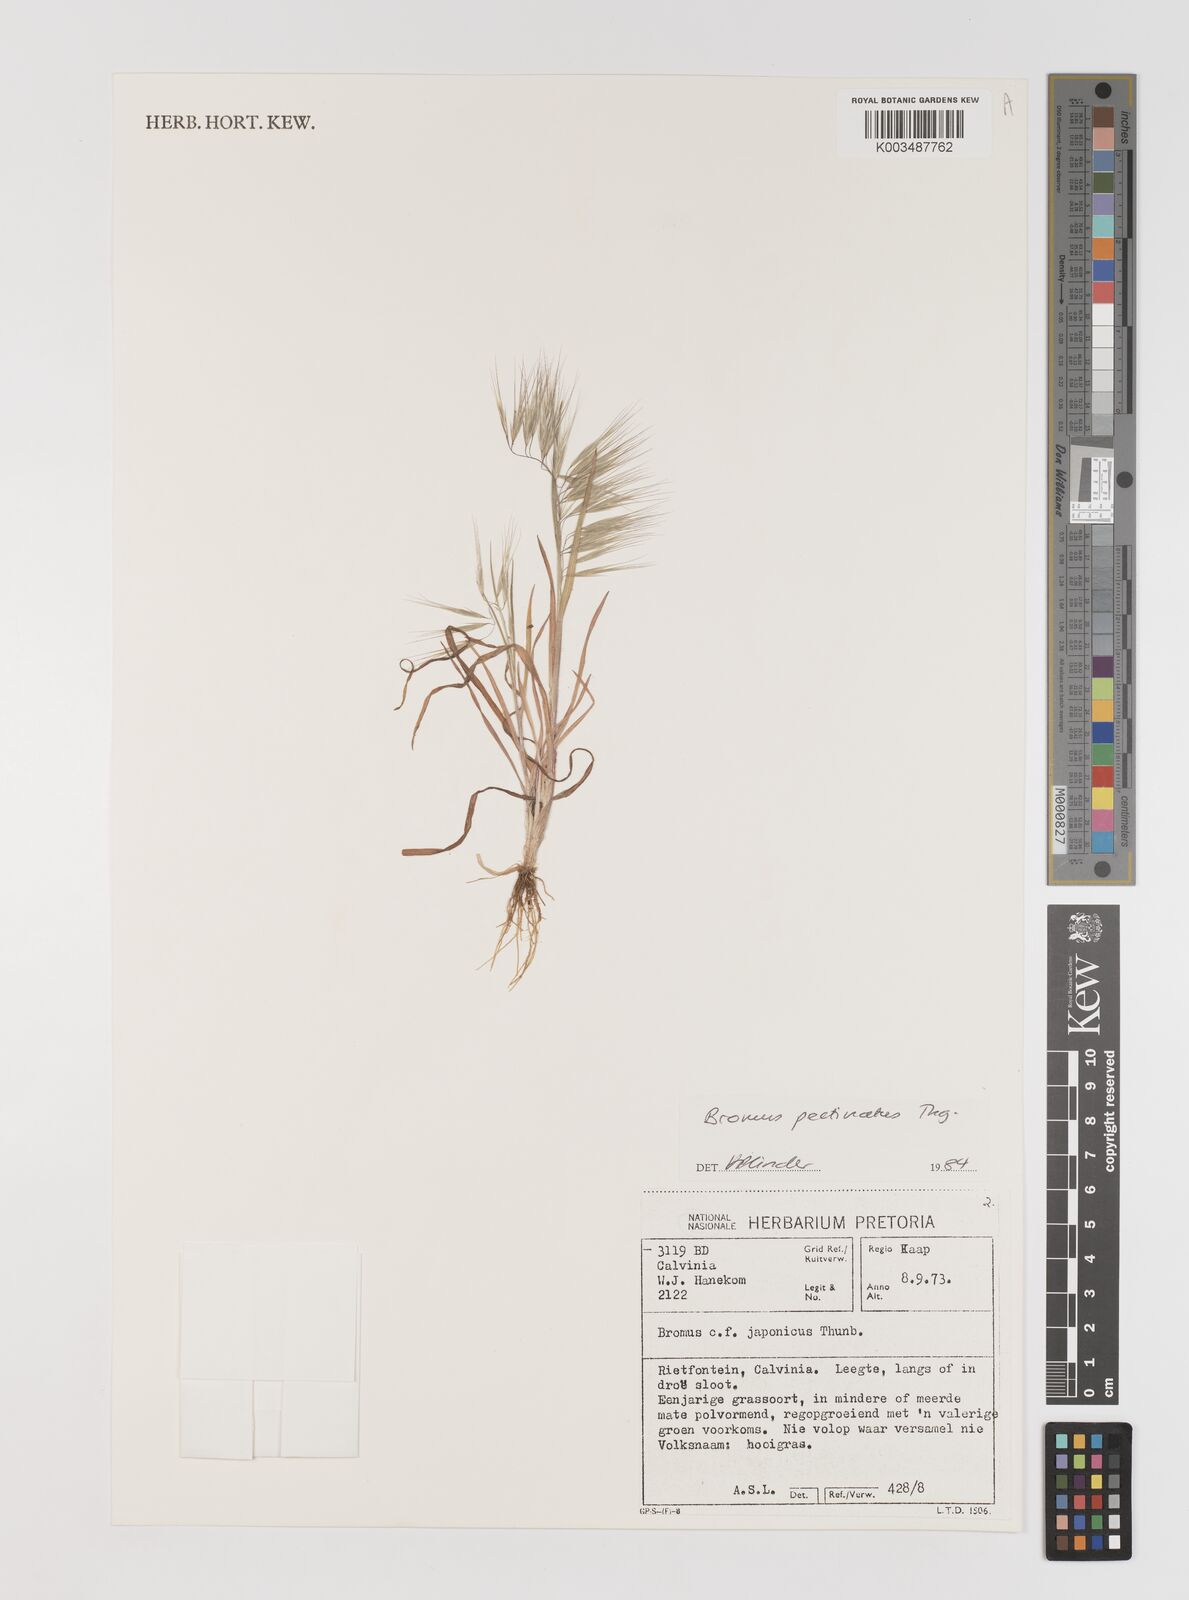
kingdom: Plantae
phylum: Tracheophyta
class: Liliopsida
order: Poales
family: Poaceae
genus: Bromus
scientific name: Bromus pectinatus
